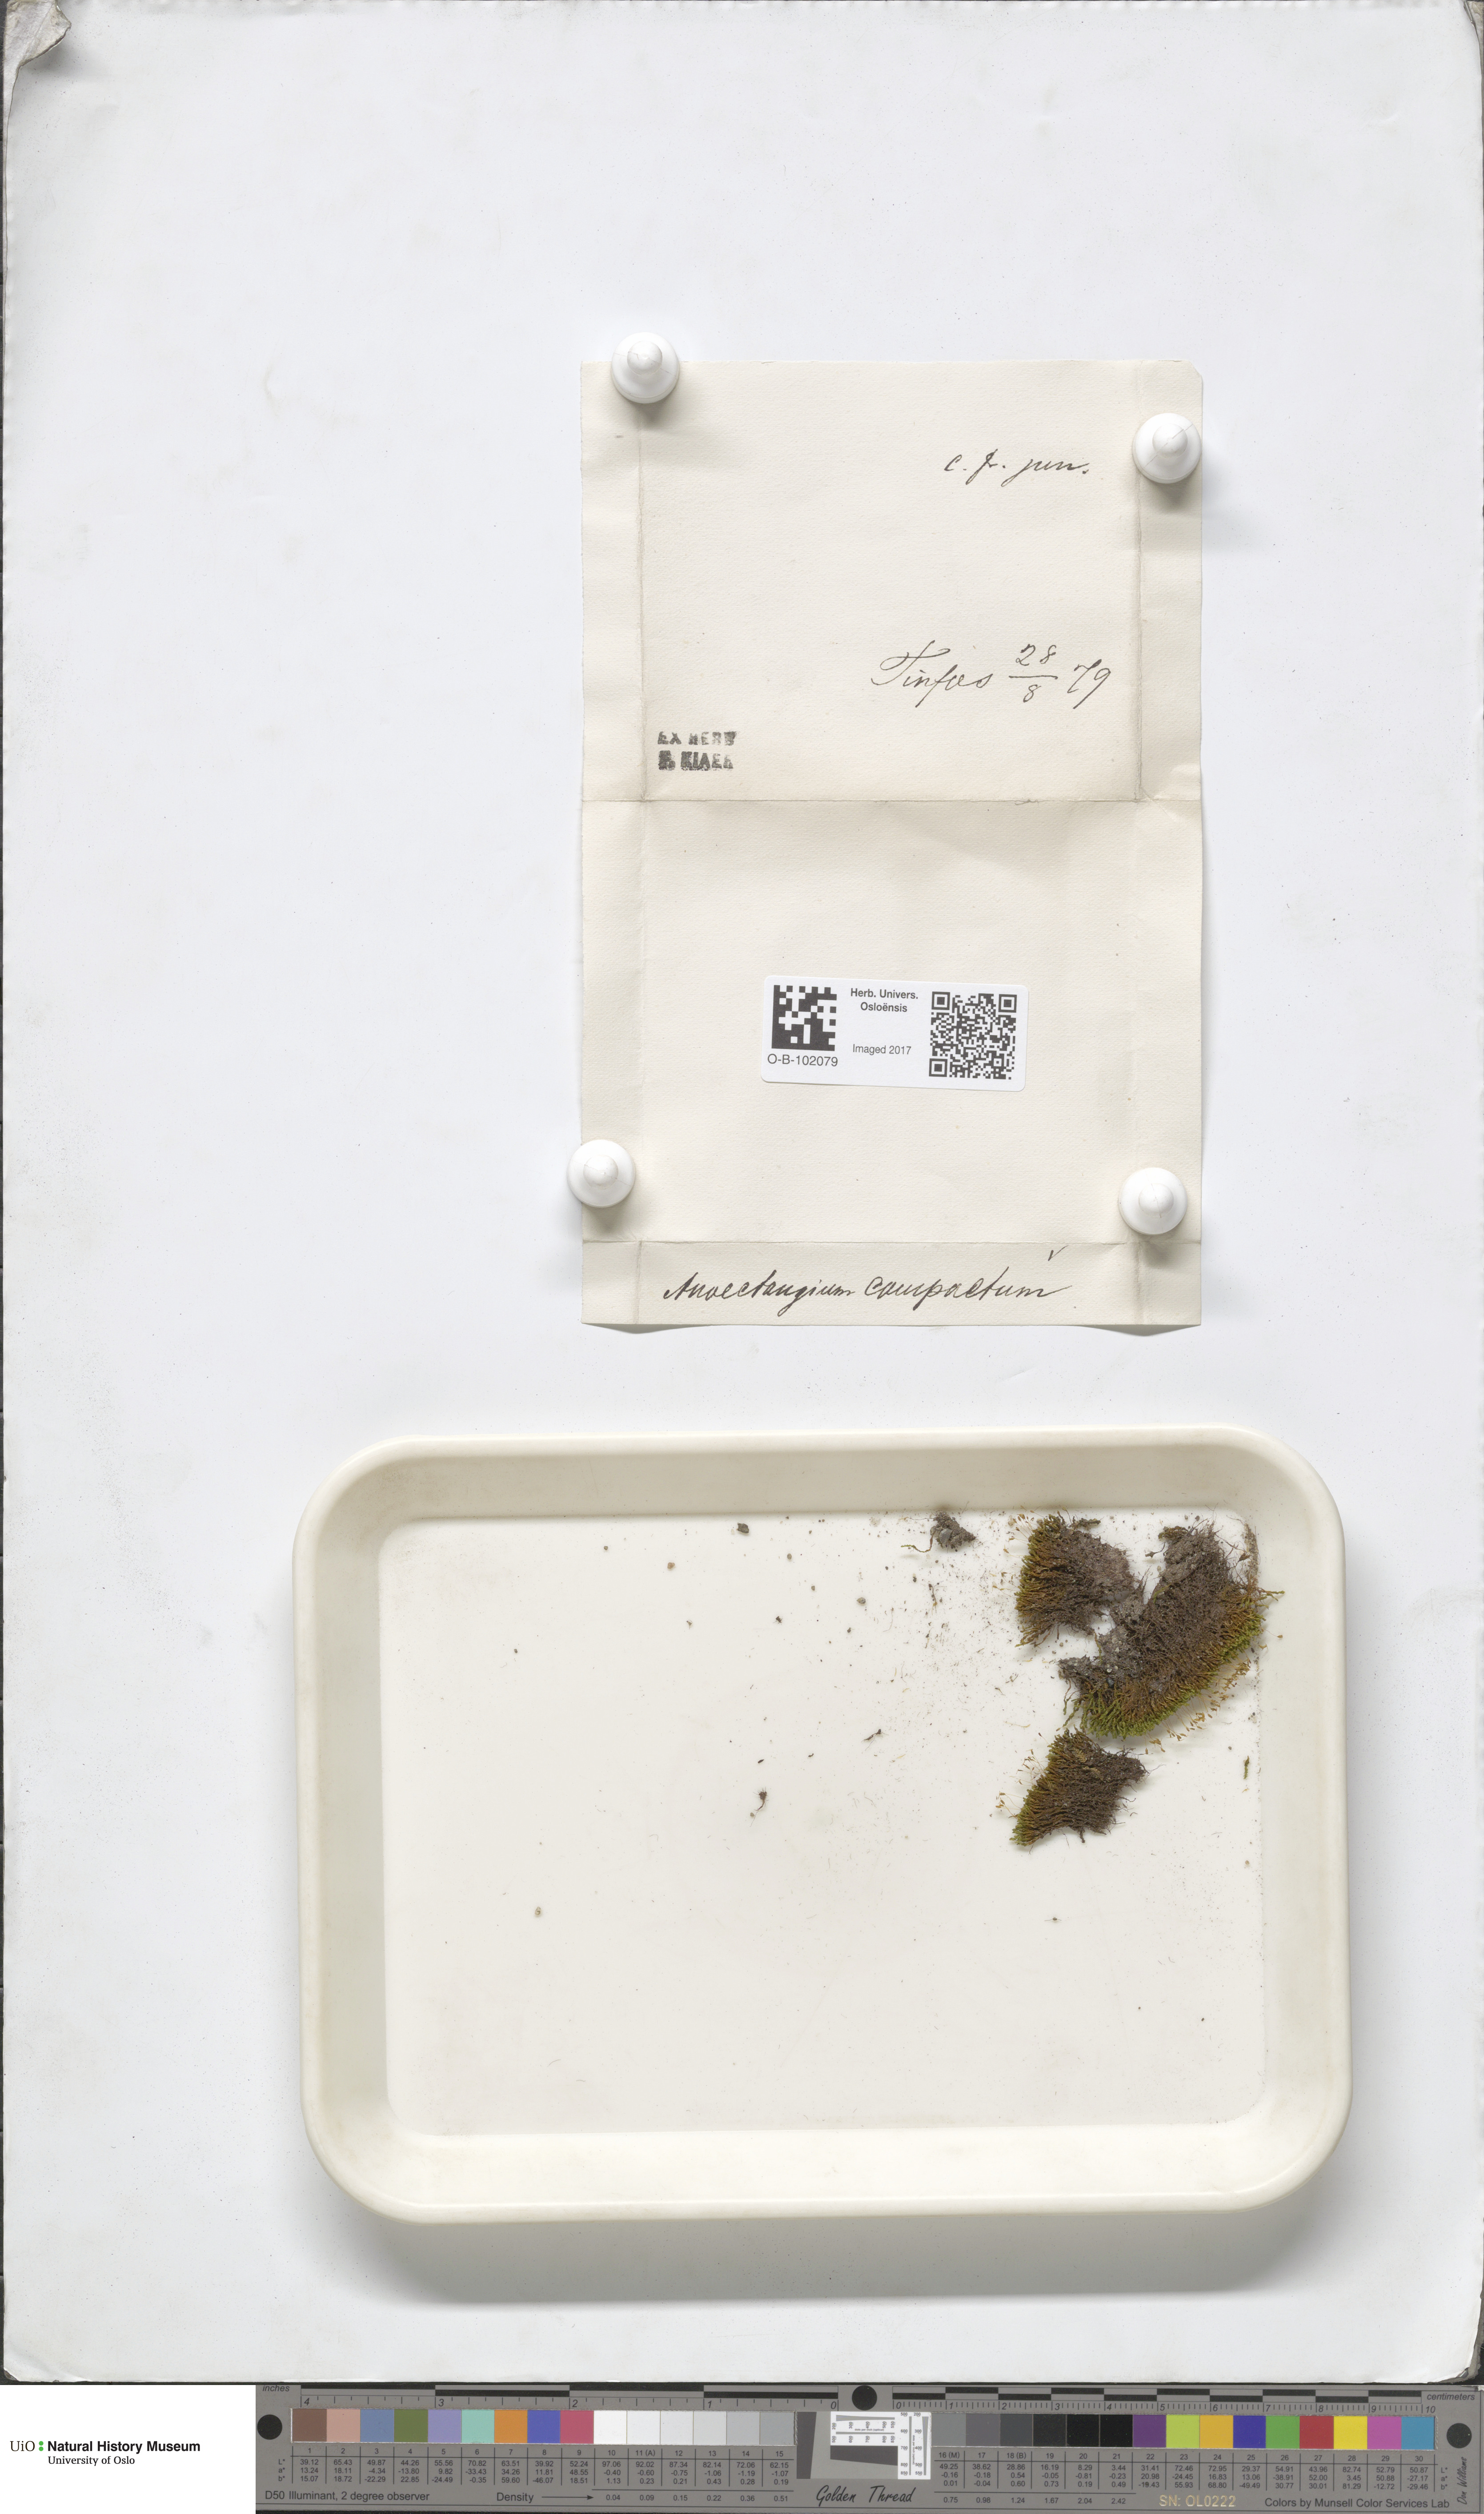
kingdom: Plantae
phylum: Bryophyta
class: Bryopsida
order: Pottiales
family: Pottiaceae
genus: Anoectangium
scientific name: Anoectangium aestivum
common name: Summer-moss
